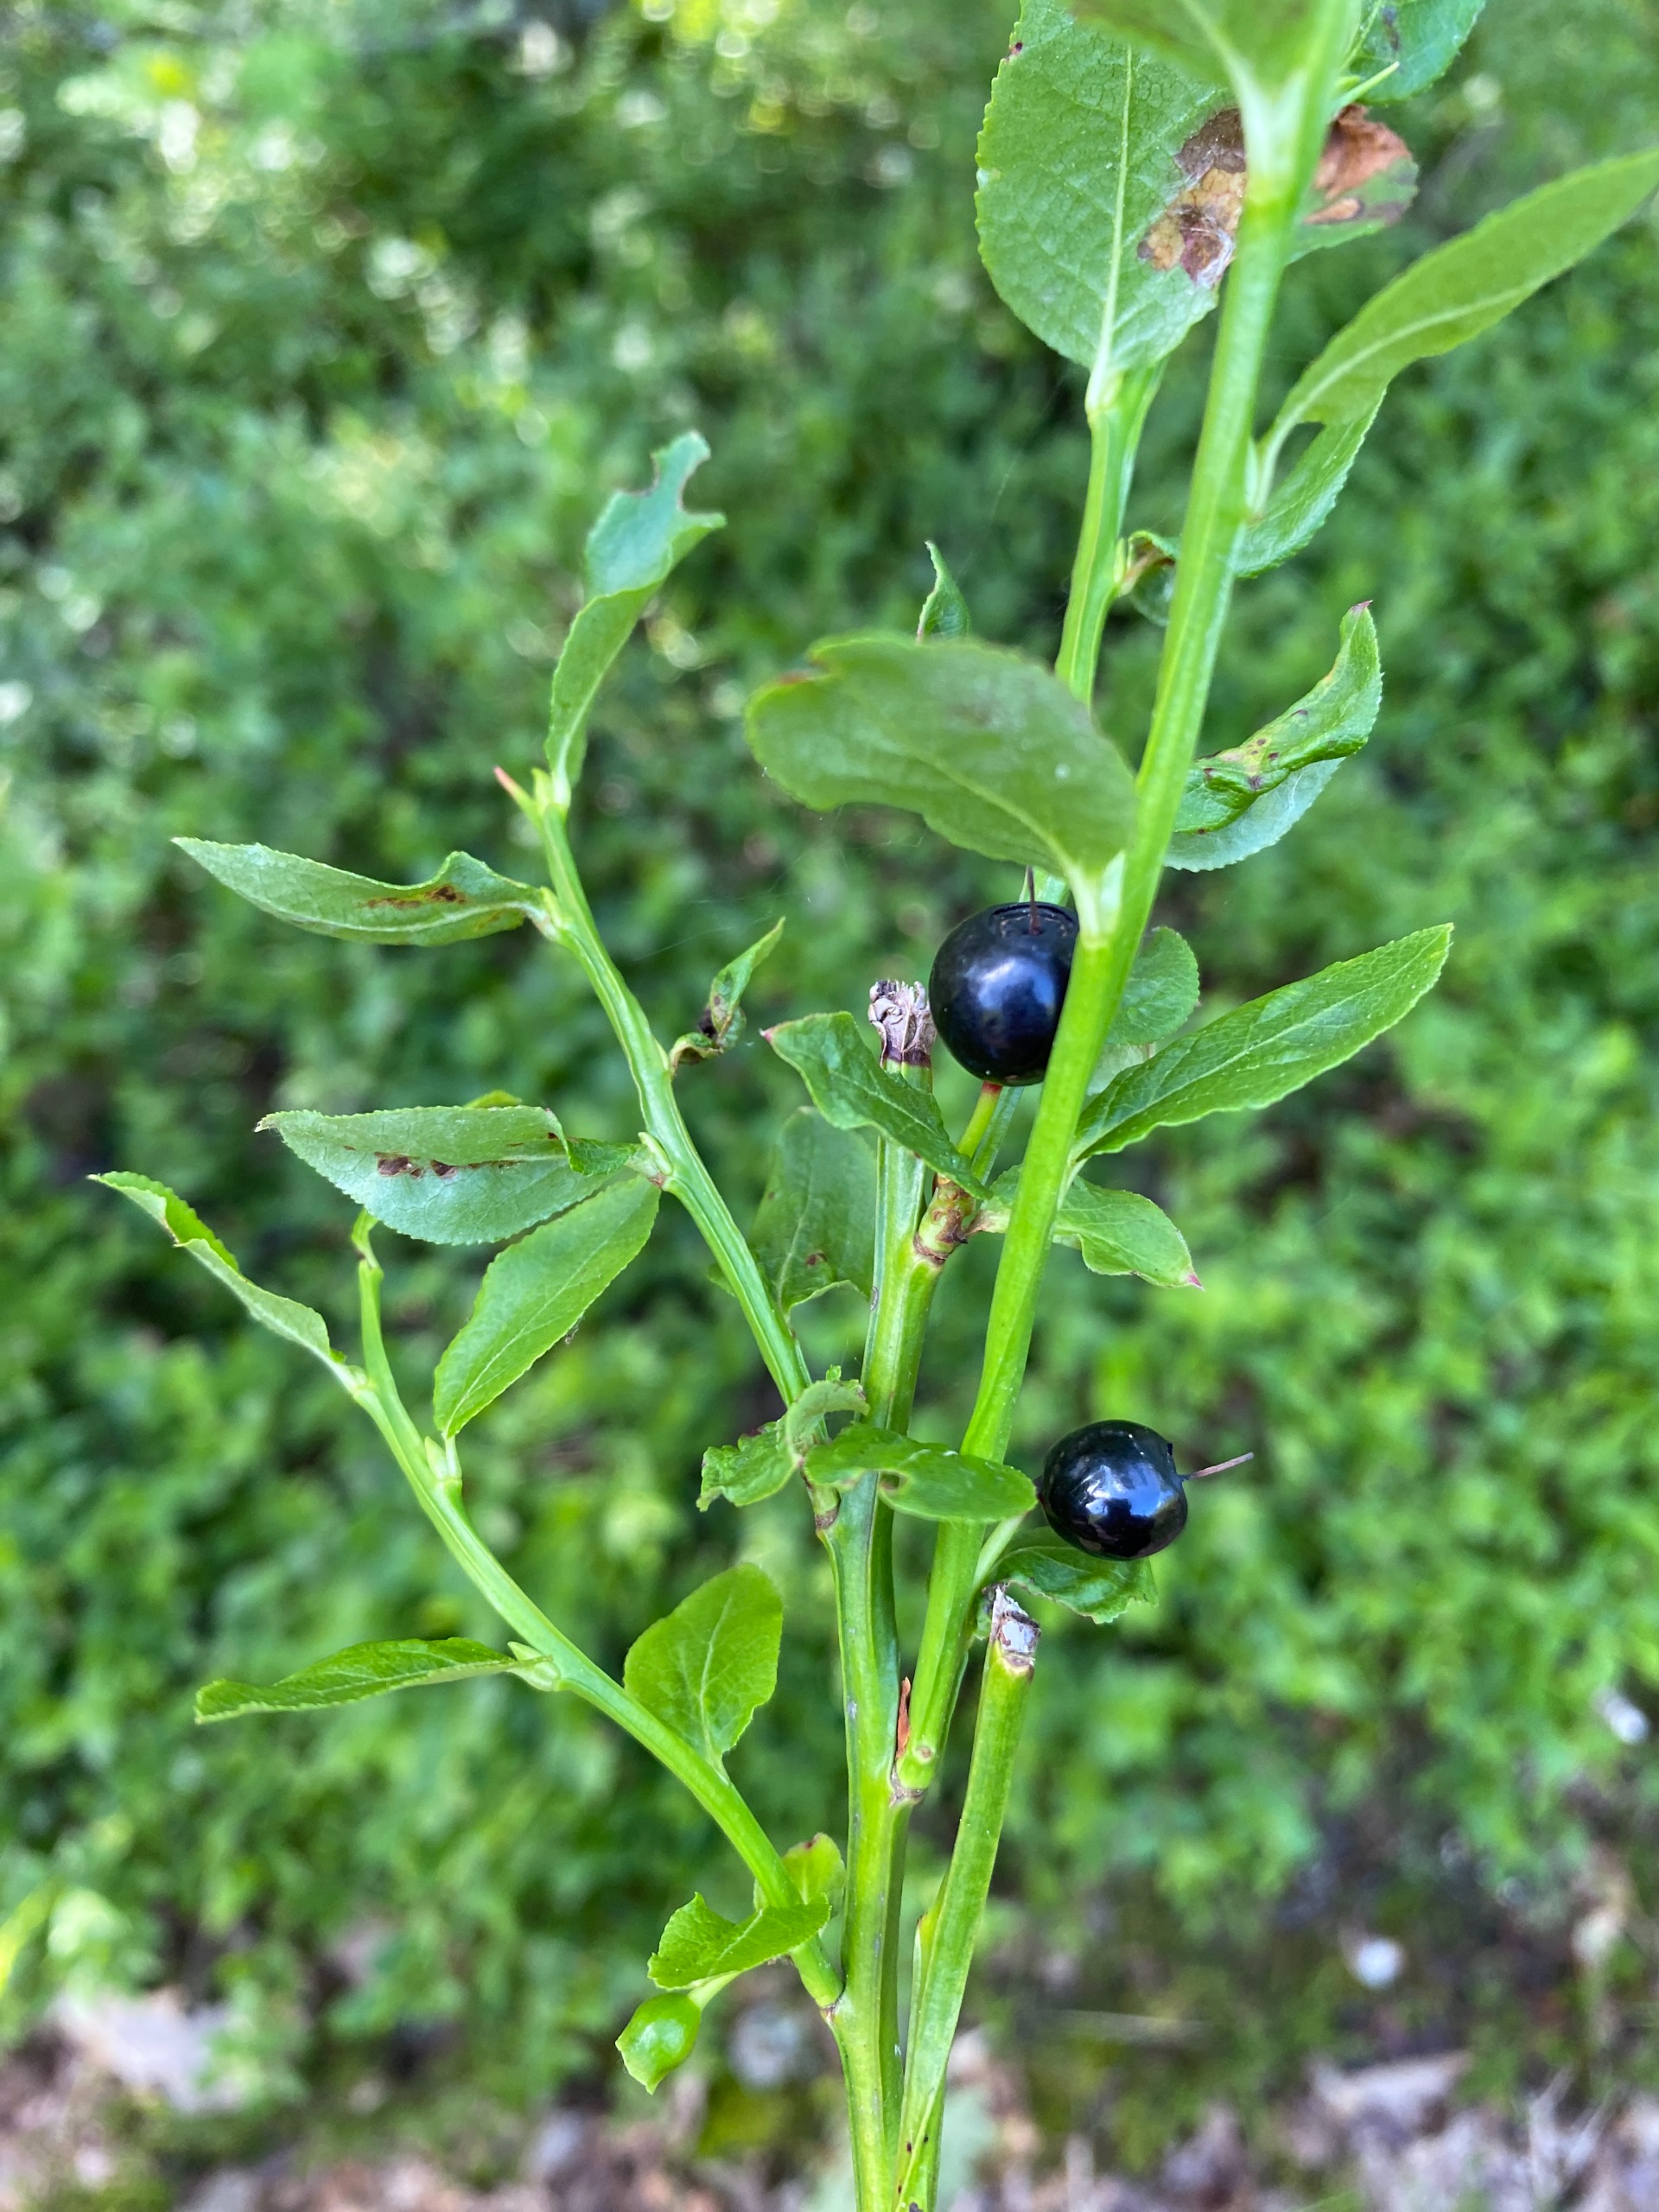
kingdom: Plantae
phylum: Tracheophyta
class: Magnoliopsida
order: Ericales
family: Ericaceae
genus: Vaccinium
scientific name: Vaccinium myrtillus
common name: Blåbær
